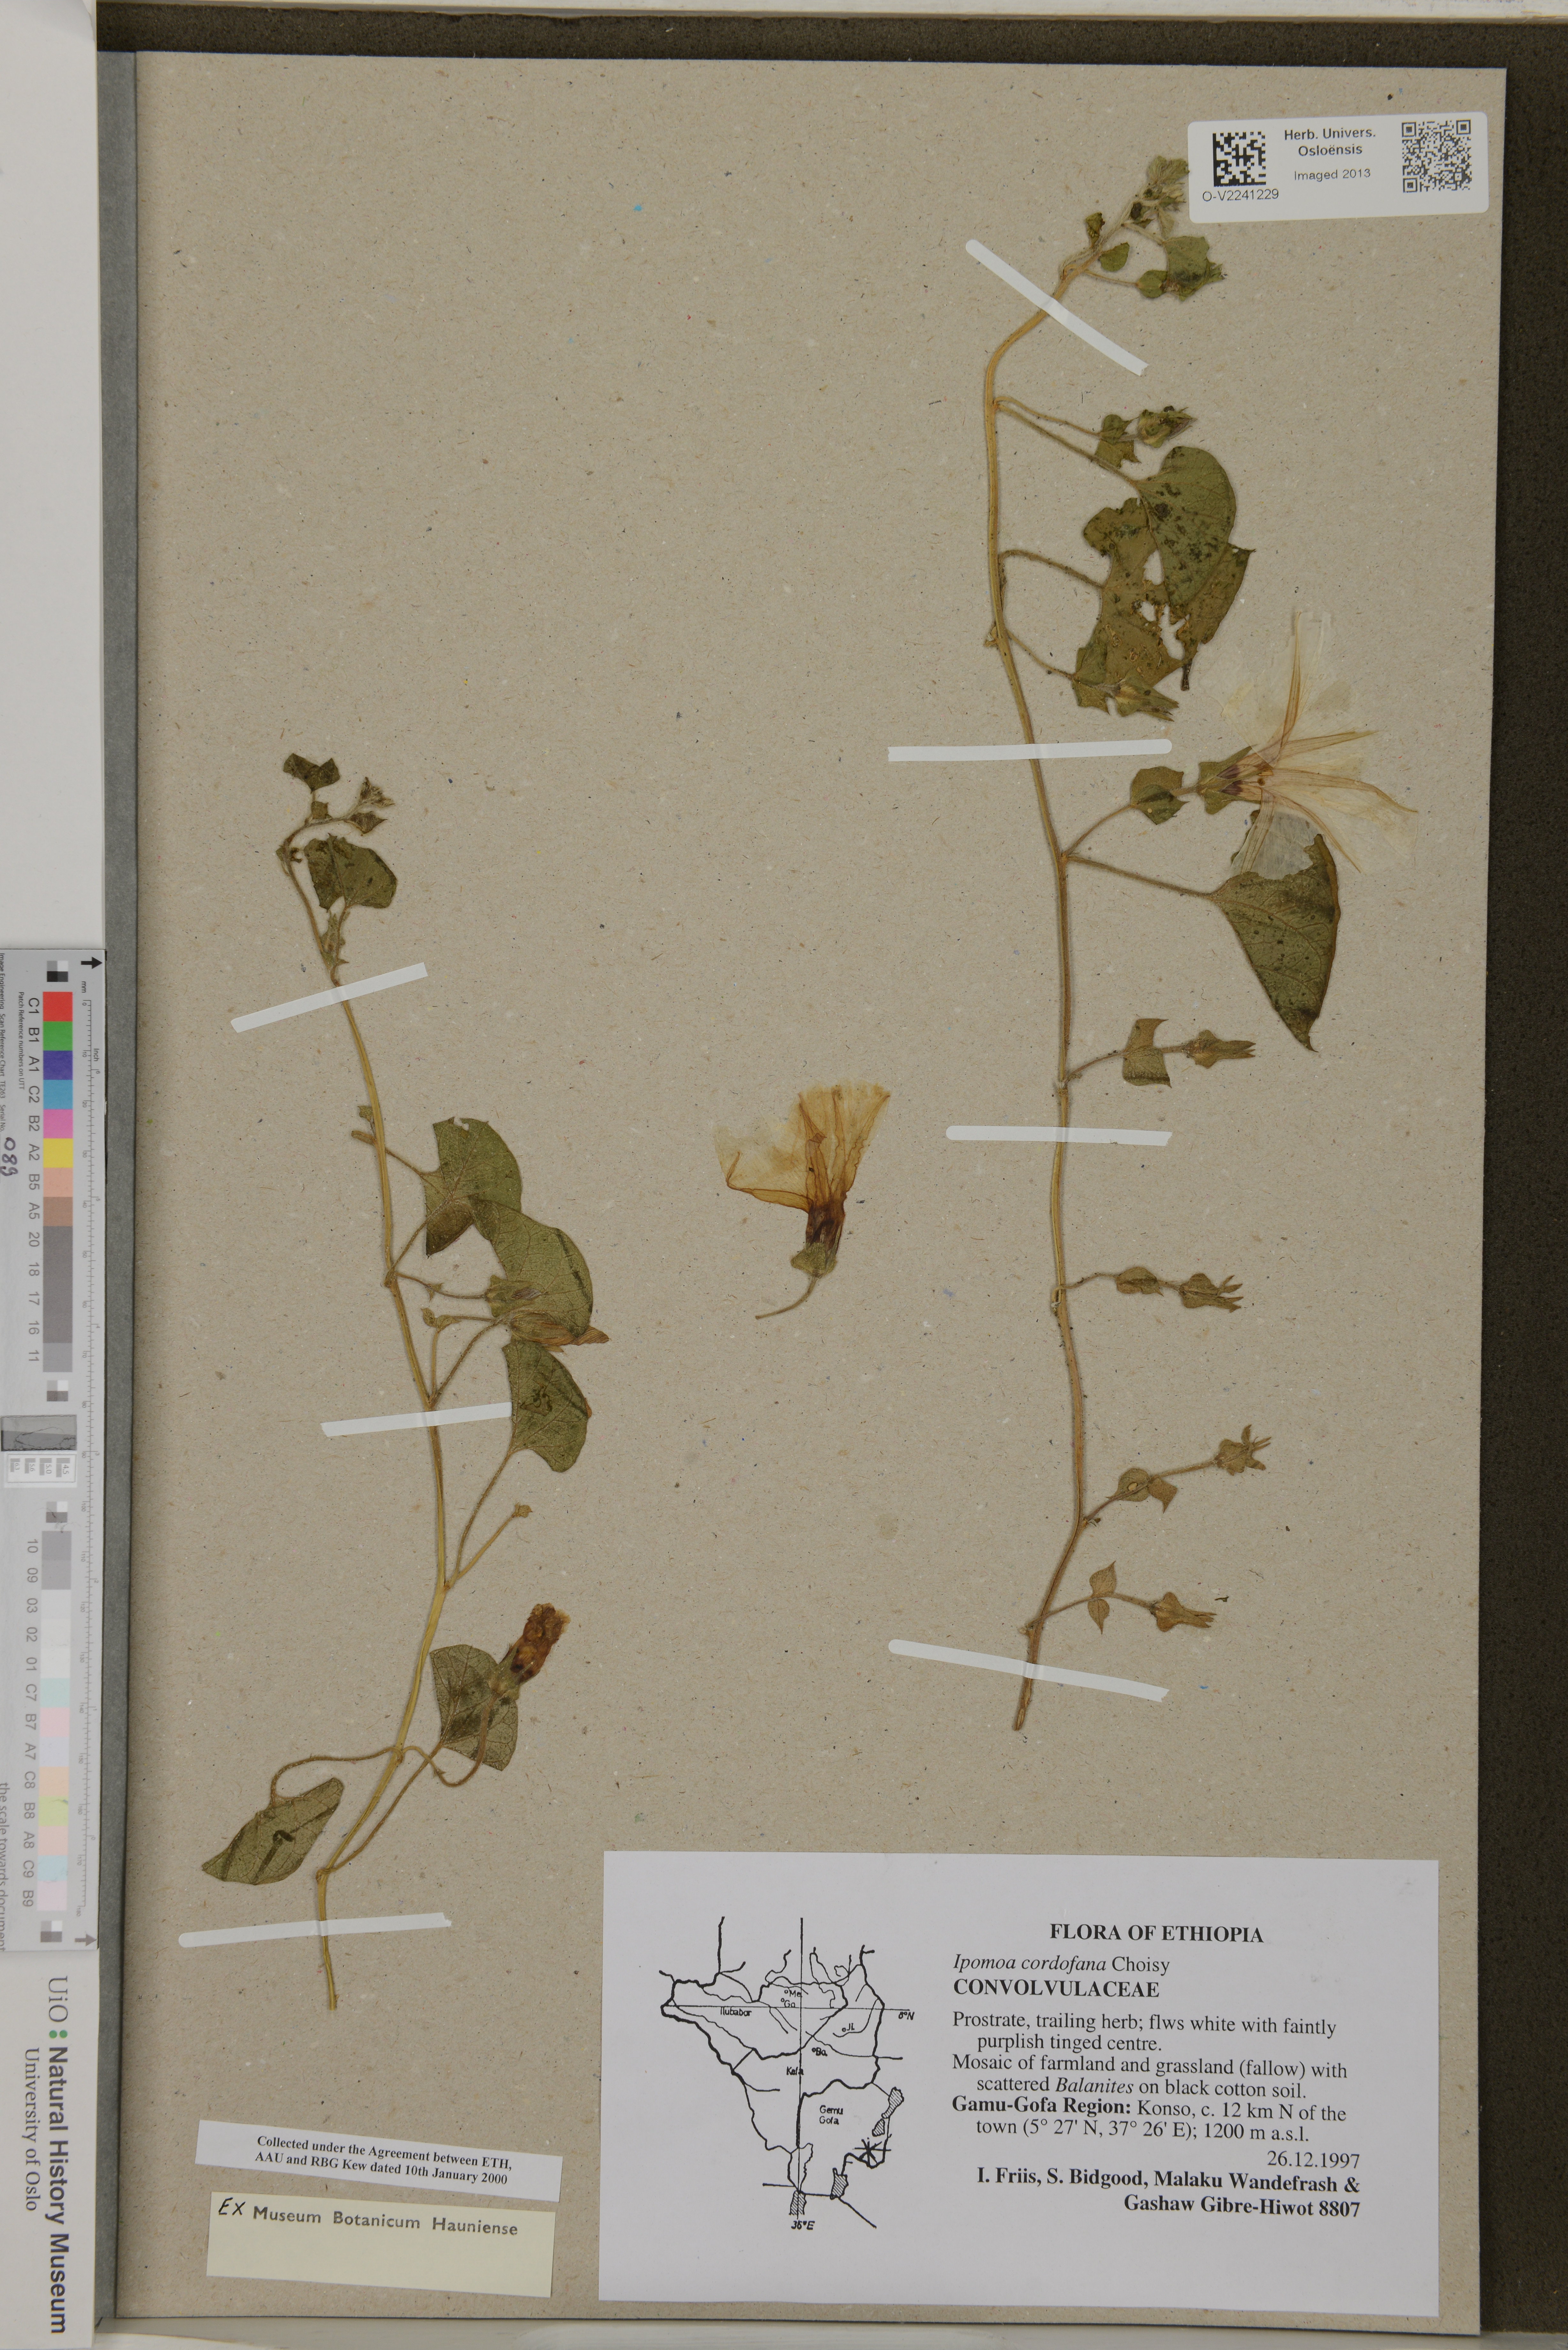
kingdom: Plantae
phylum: Tracheophyta
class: Magnoliopsida
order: Solanales
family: Convolvulaceae
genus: Ipomoea
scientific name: Ipomoea cordofana
